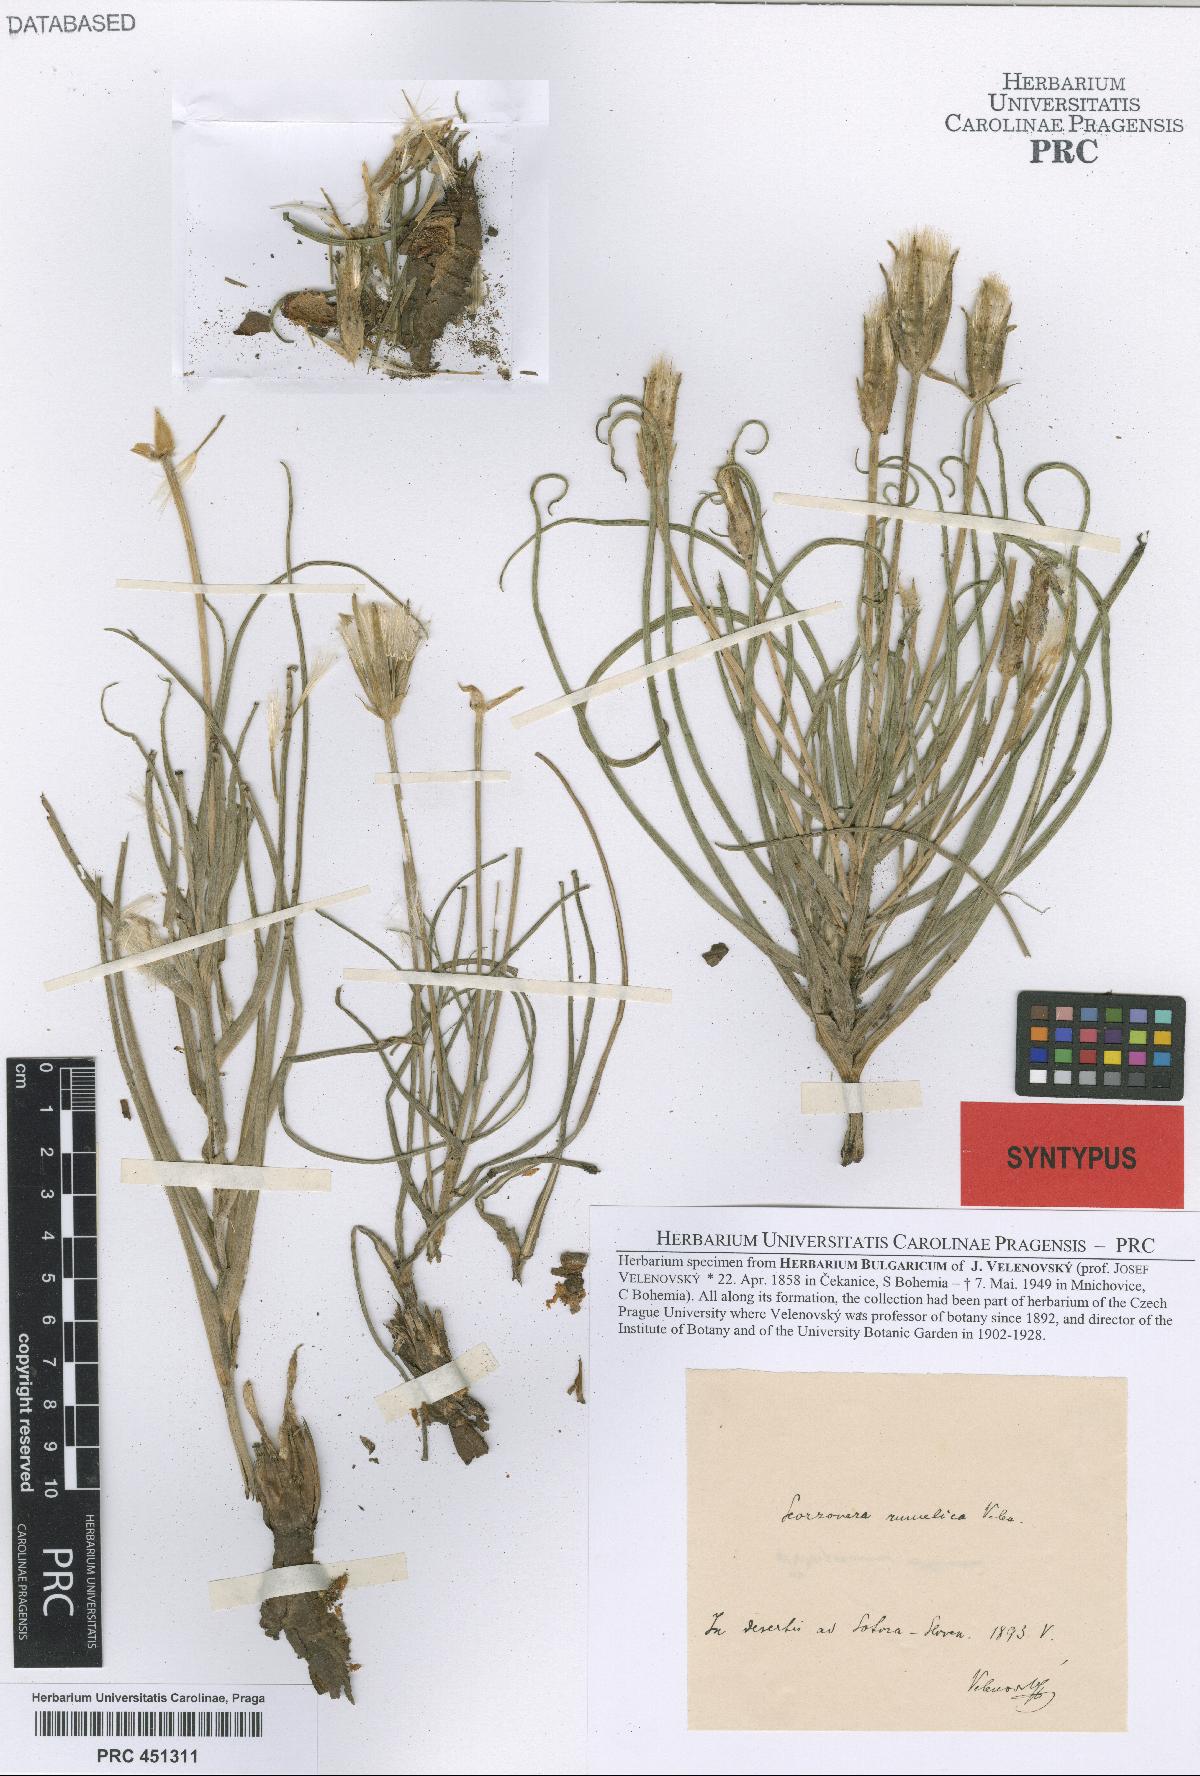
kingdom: Plantae
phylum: Tracheophyta
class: Magnoliopsida
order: Asterales
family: Asteraceae
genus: Candollea
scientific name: Candollea mollis
